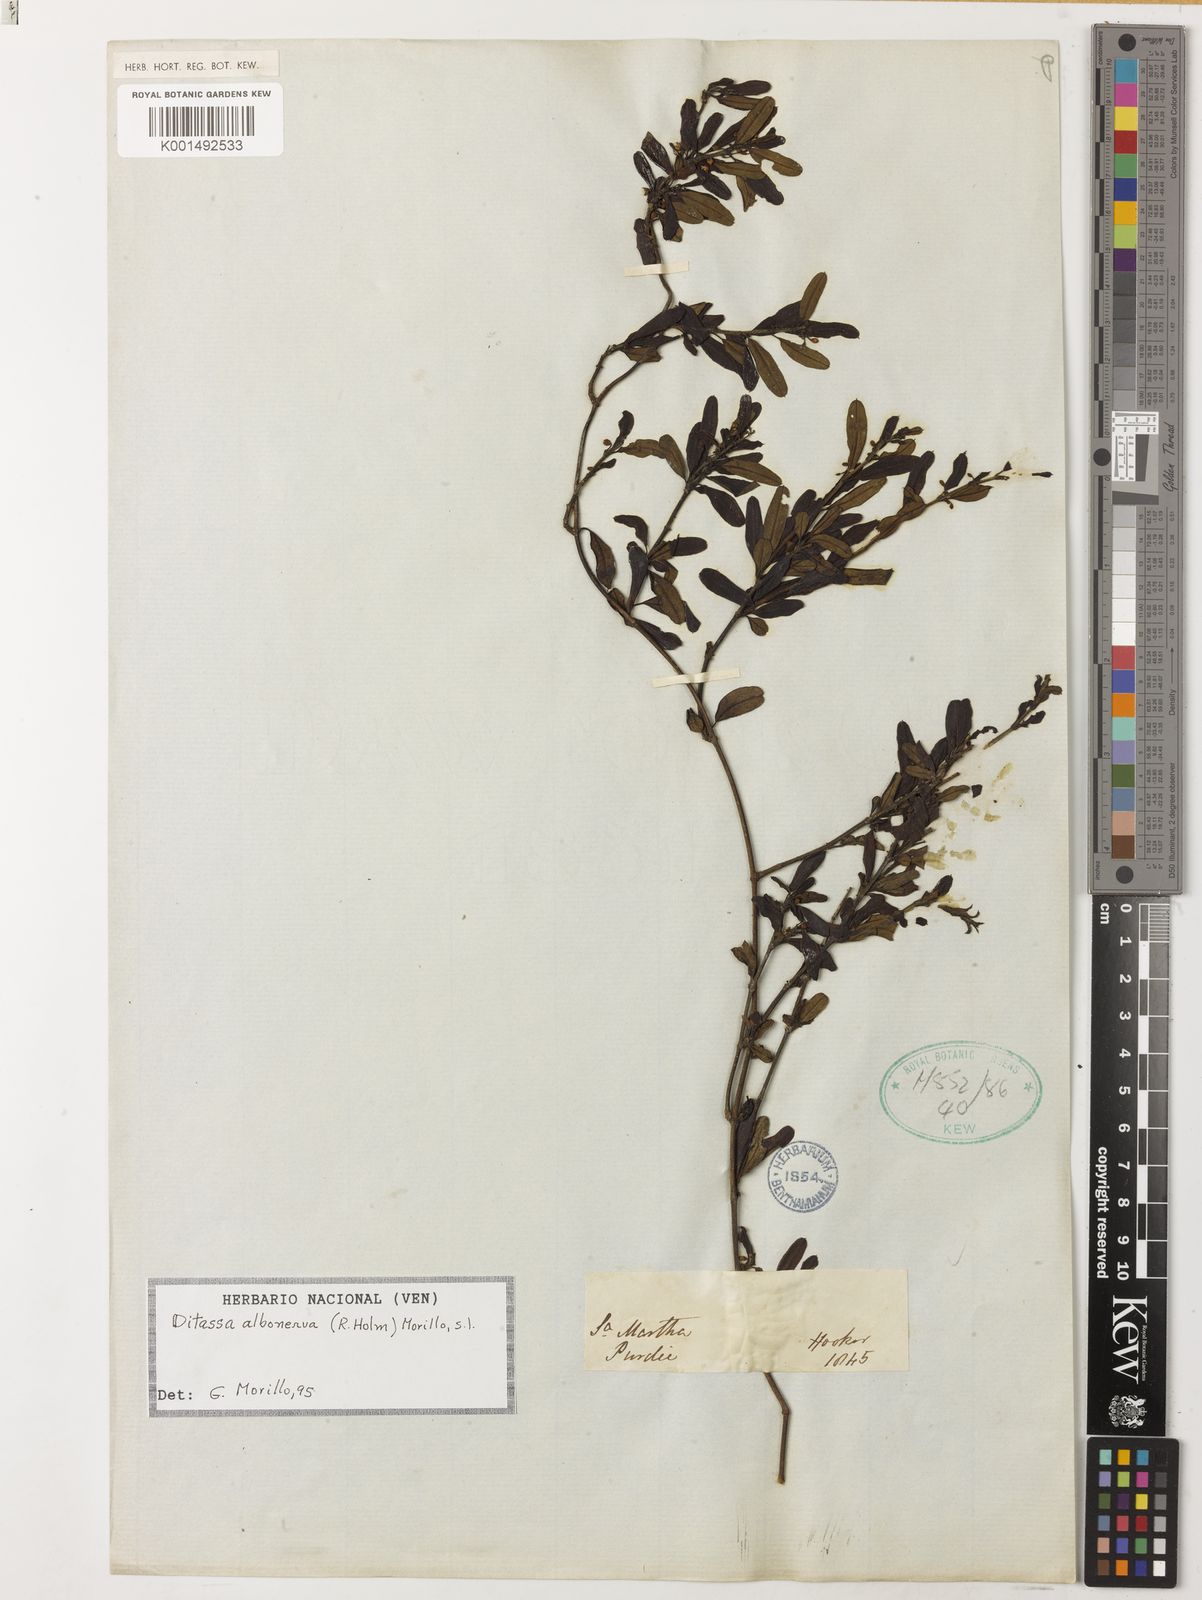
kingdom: Plantae
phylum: Tracheophyta
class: Magnoliopsida
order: Gentianales
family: Apocynaceae
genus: Ditassa
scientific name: Ditassa albonerva
